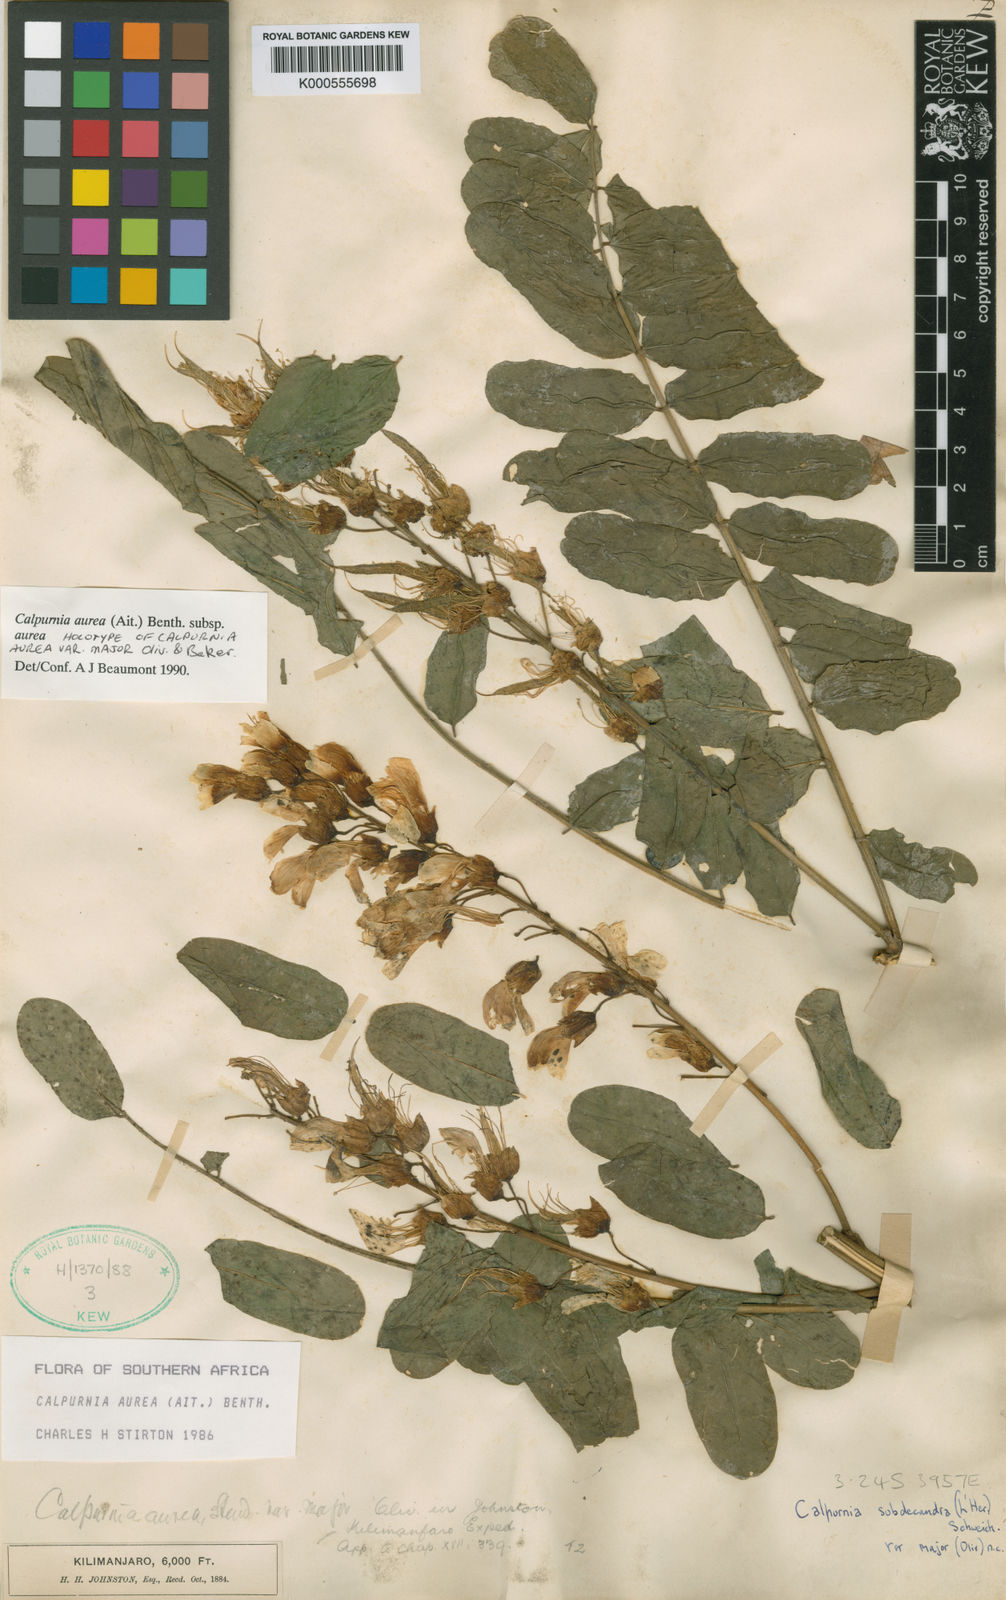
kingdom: Plantae
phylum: Tracheophyta
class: Magnoliopsida
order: Fabales
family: Fabaceae
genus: Calpurnia
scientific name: Calpurnia aurea
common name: Wild laburnum
